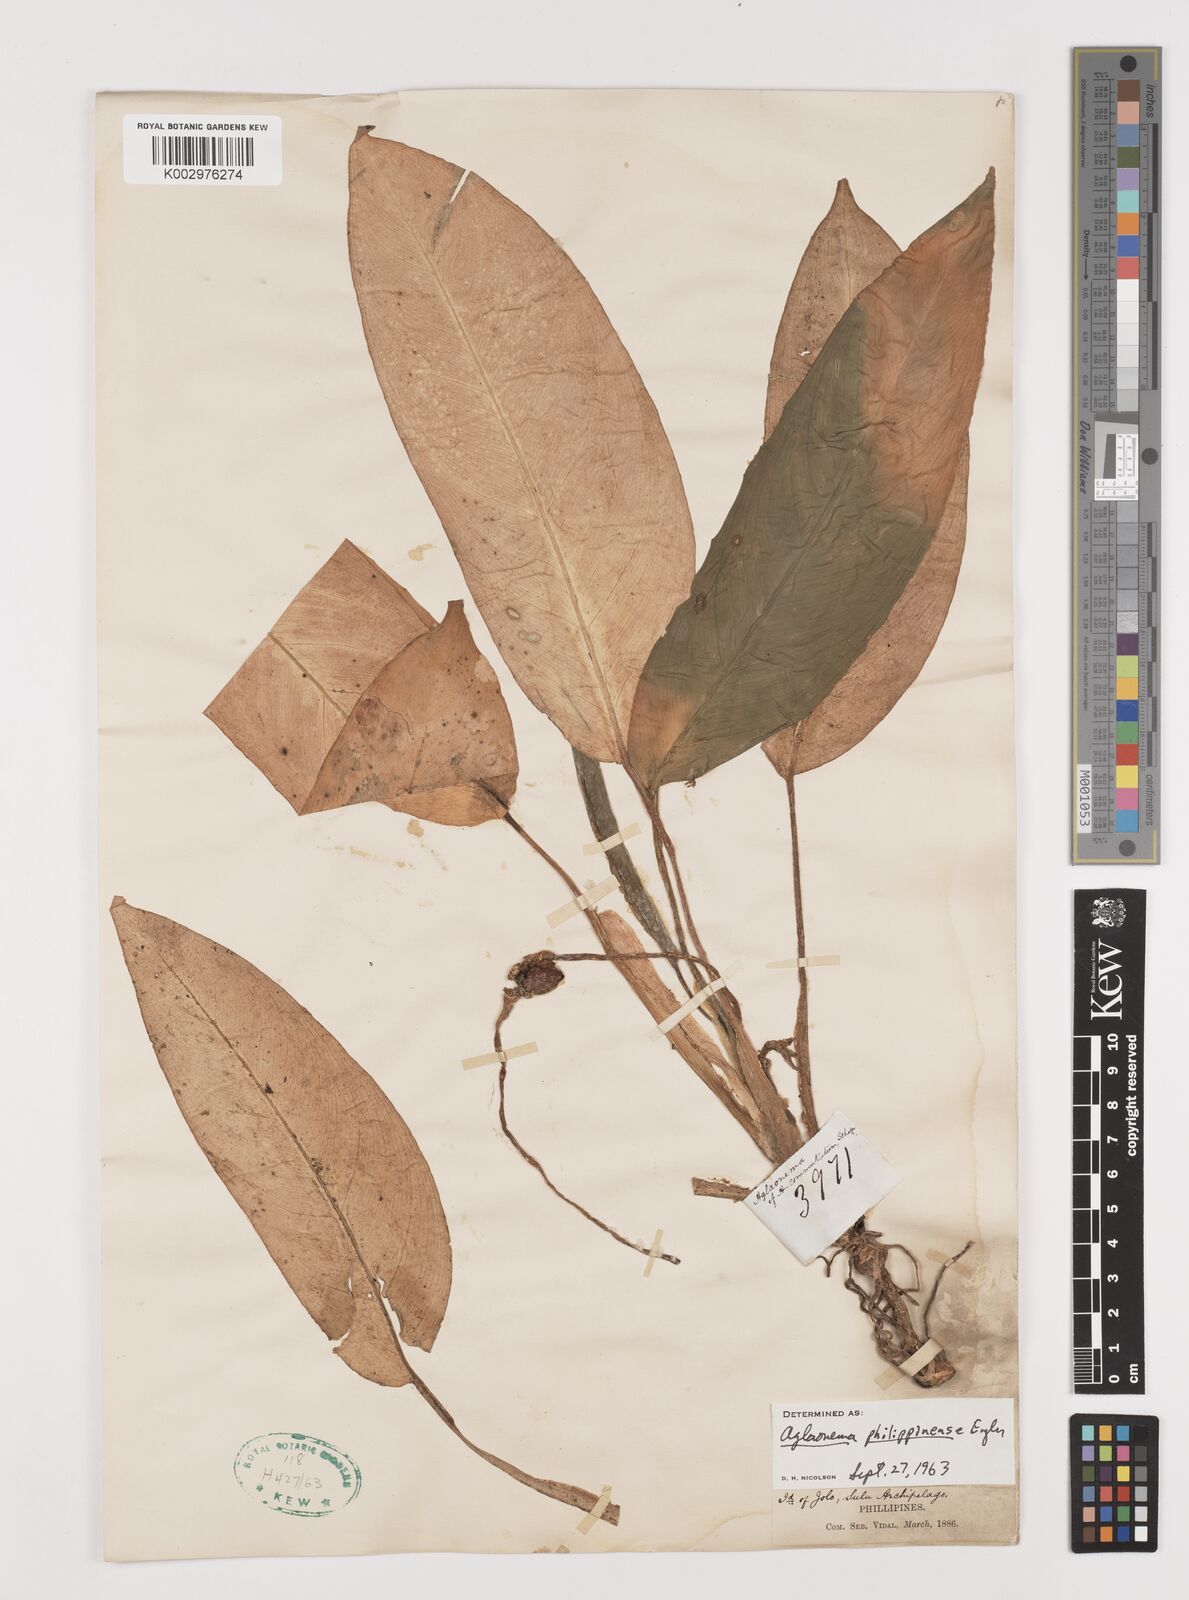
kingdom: Plantae
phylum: Tracheophyta
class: Liliopsida
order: Alismatales
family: Araceae
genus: Aglaonema
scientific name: Aglaonema philippinense
